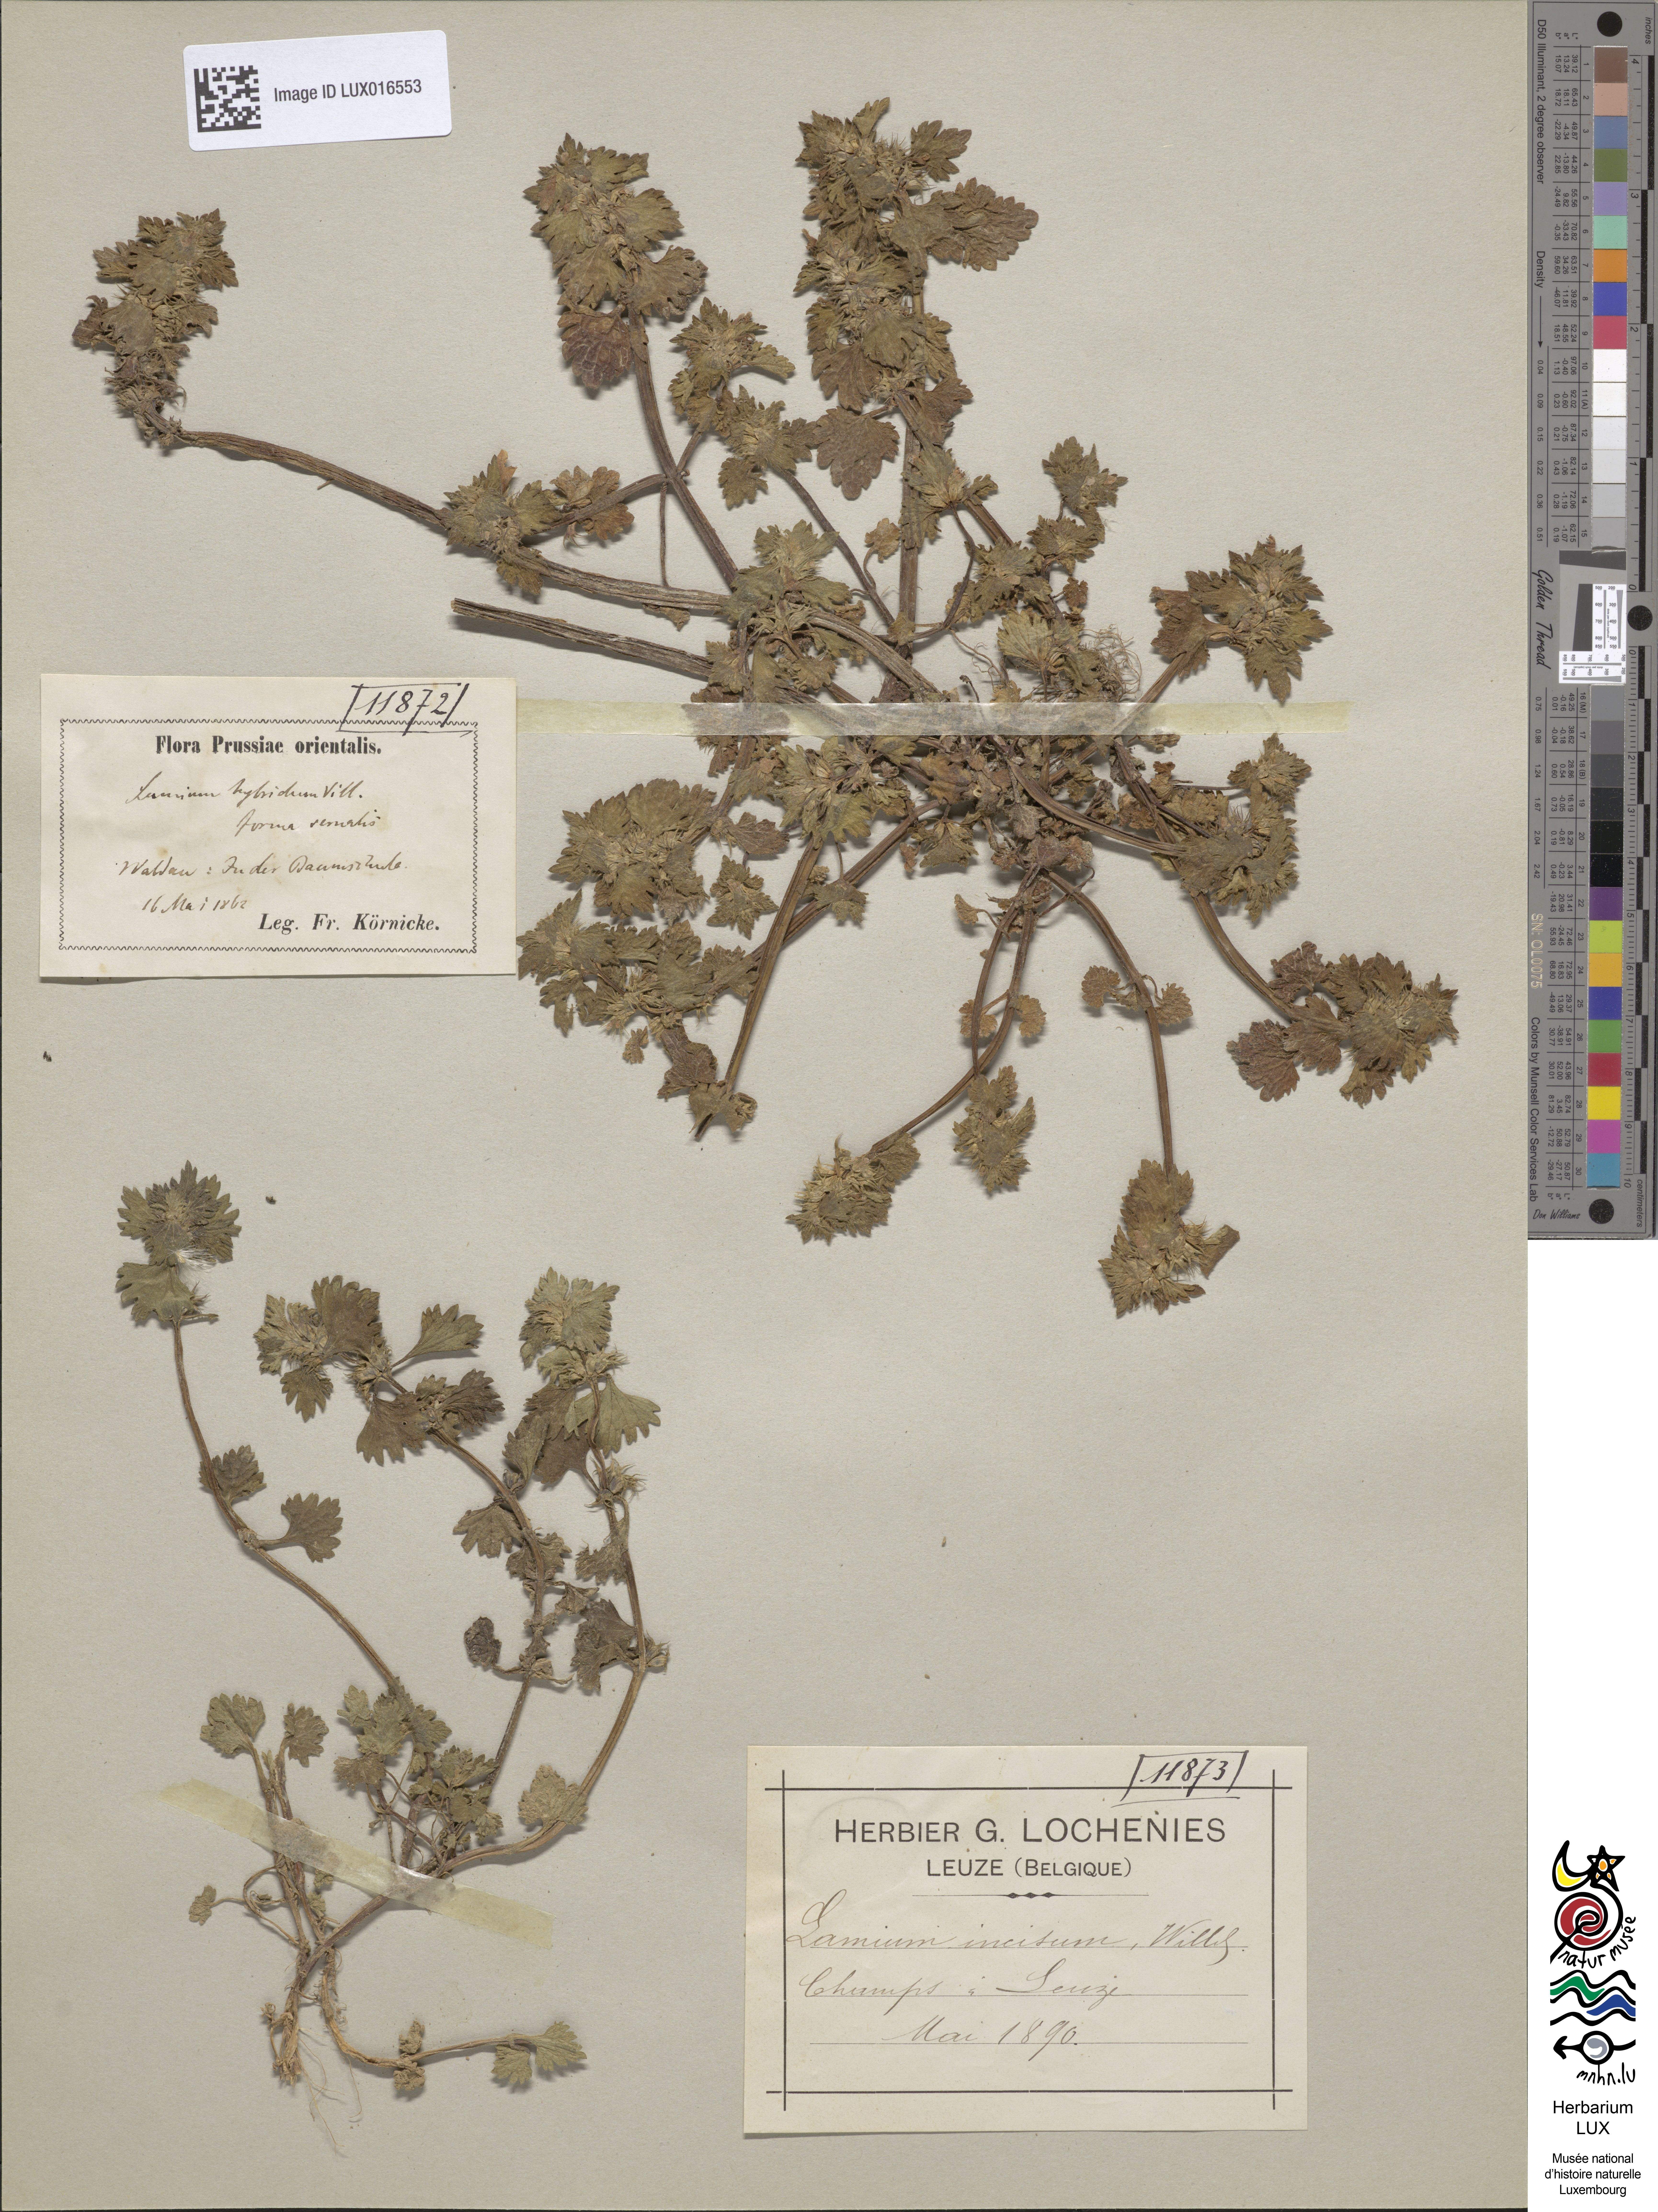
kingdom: Plantae
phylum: Tracheophyta
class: Magnoliopsida
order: Lamiales
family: Lamiaceae
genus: Lamium
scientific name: Lamium hybridum
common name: Cut-leaved dead-nettle
